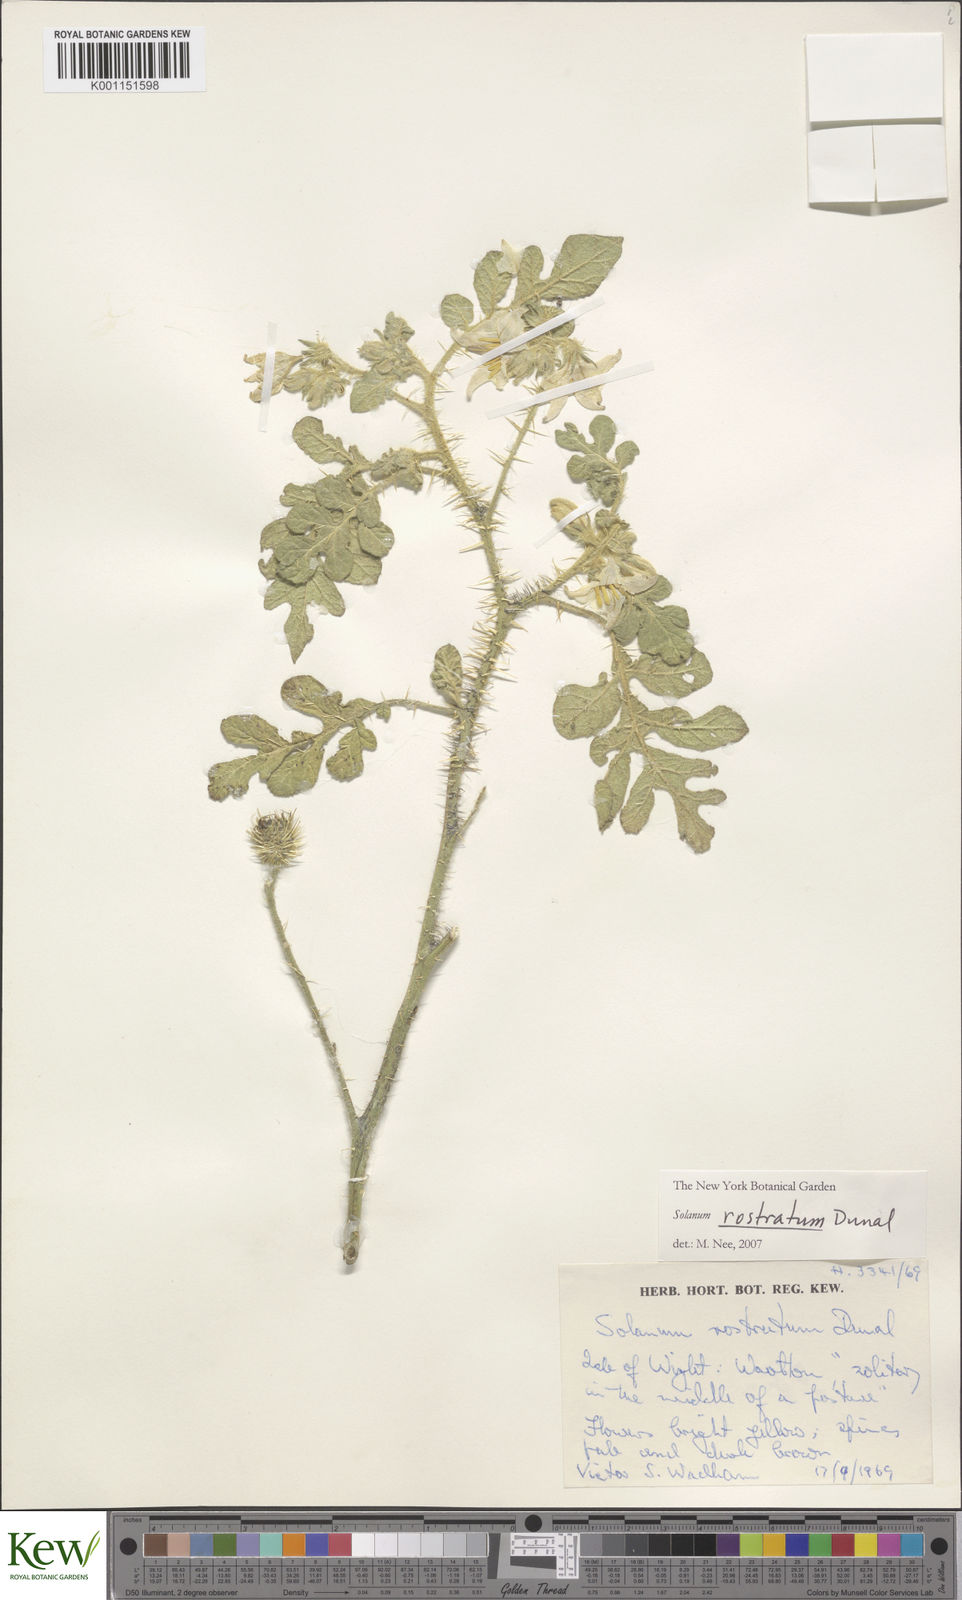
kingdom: Plantae
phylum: Tracheophyta
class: Magnoliopsida
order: Solanales
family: Solanaceae
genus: Solanum
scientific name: Solanum angustifolium
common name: Buffalobur nightshade
